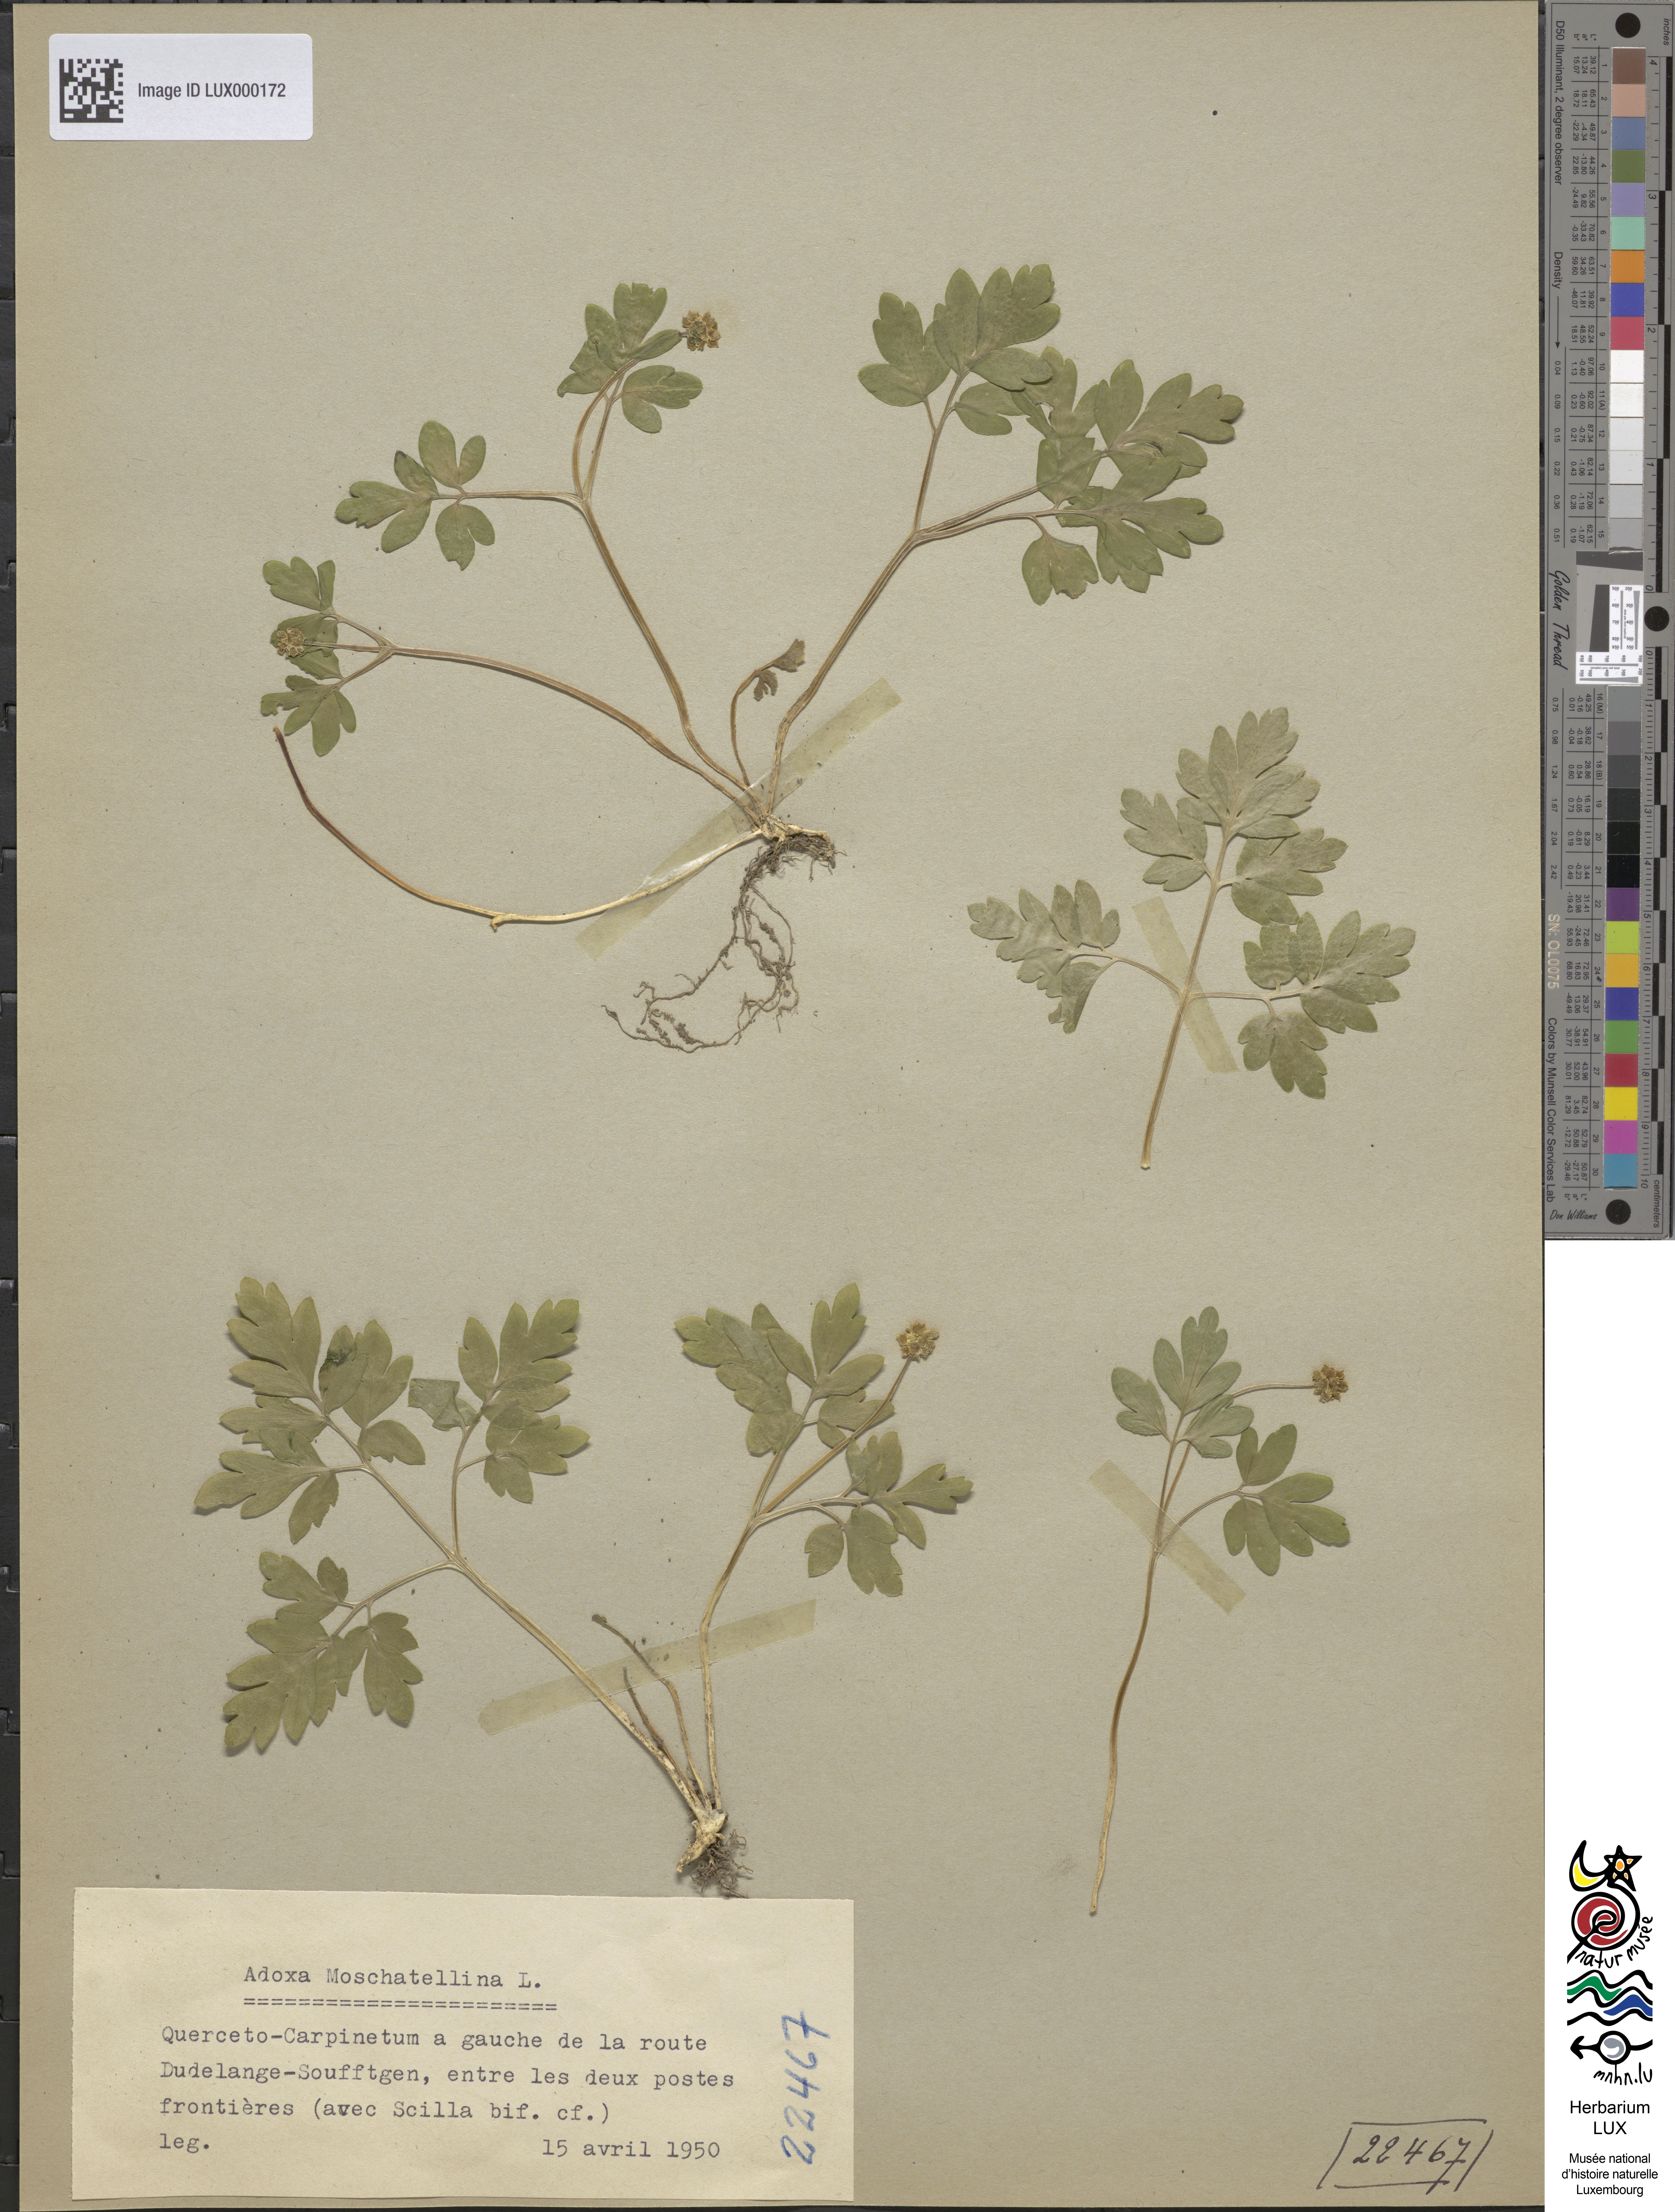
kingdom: Plantae
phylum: Tracheophyta
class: Magnoliopsida
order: Dipsacales
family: Viburnaceae
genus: Adoxa
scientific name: Adoxa moschatellina
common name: Moschatel
